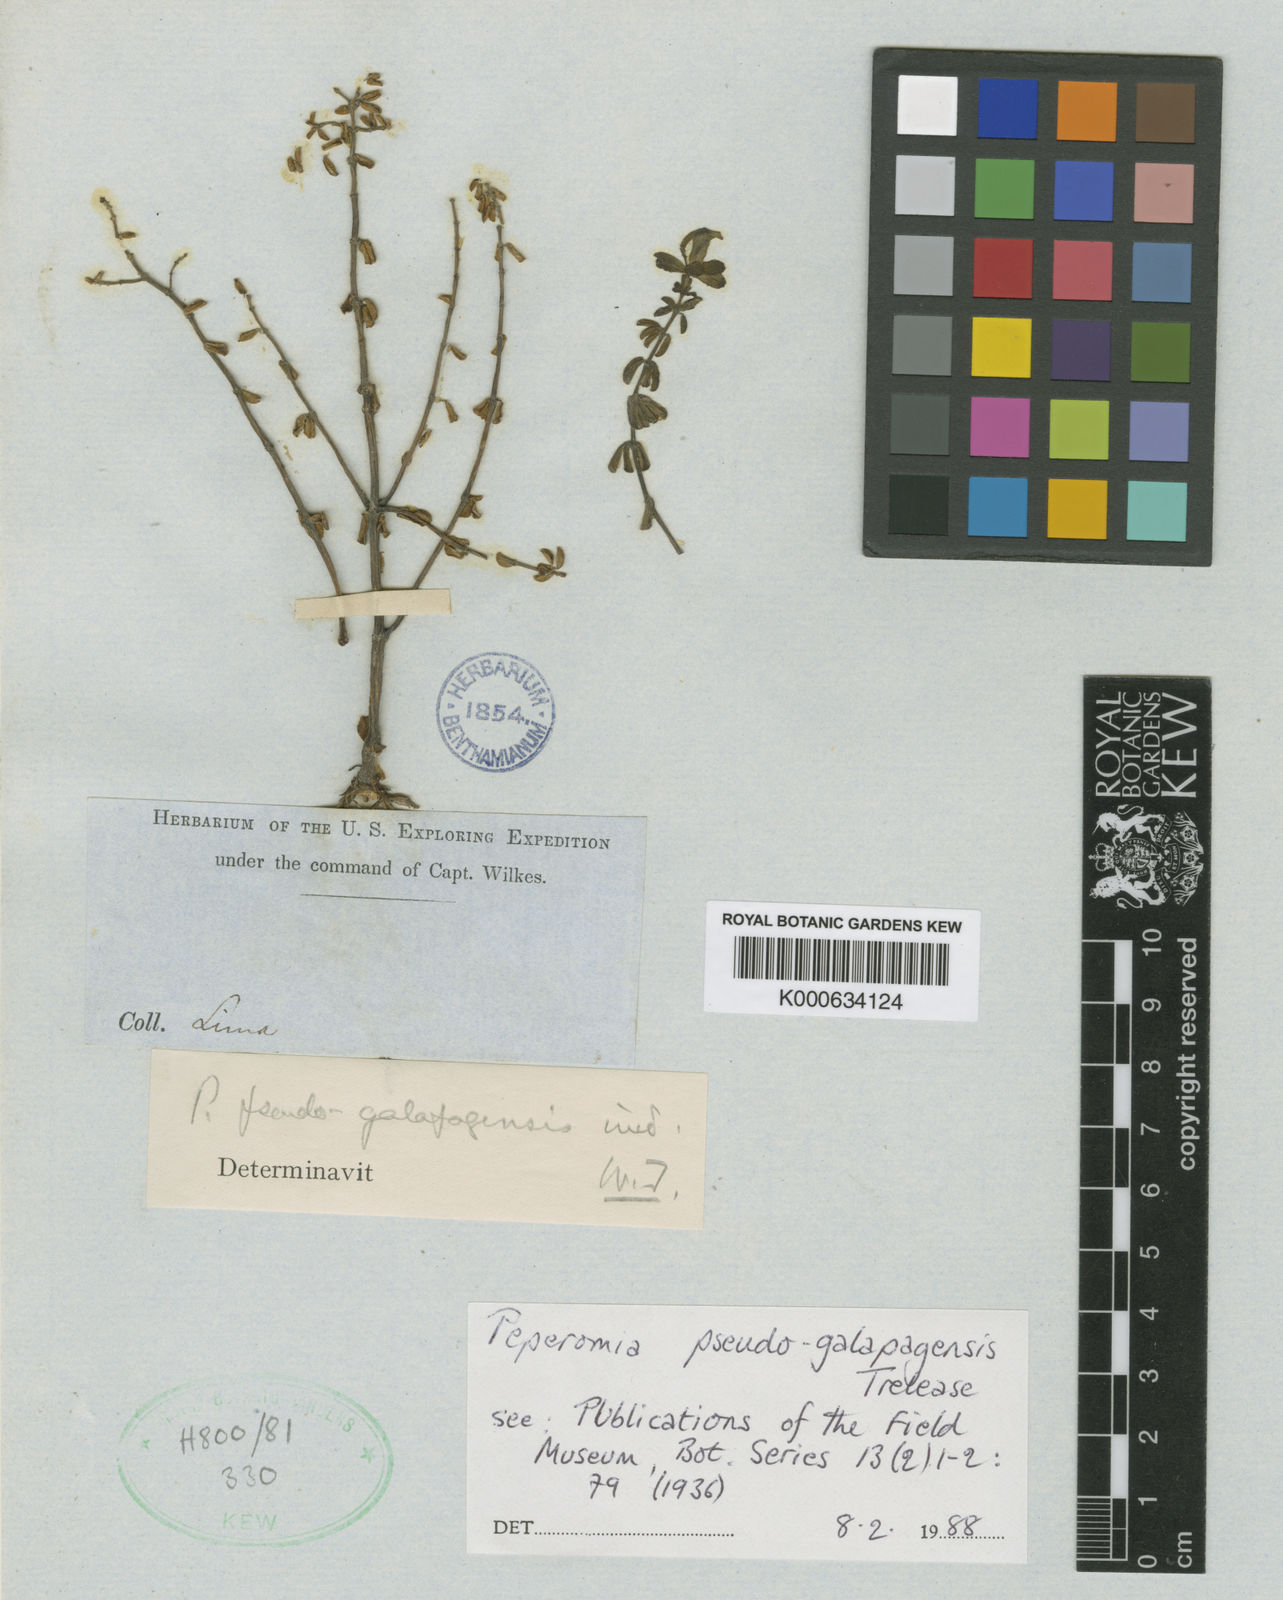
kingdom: Plantae
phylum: Tracheophyta
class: Magnoliopsida
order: Piperales
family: Piperaceae
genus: Peperomia
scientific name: Peperomia inaequalifolia
